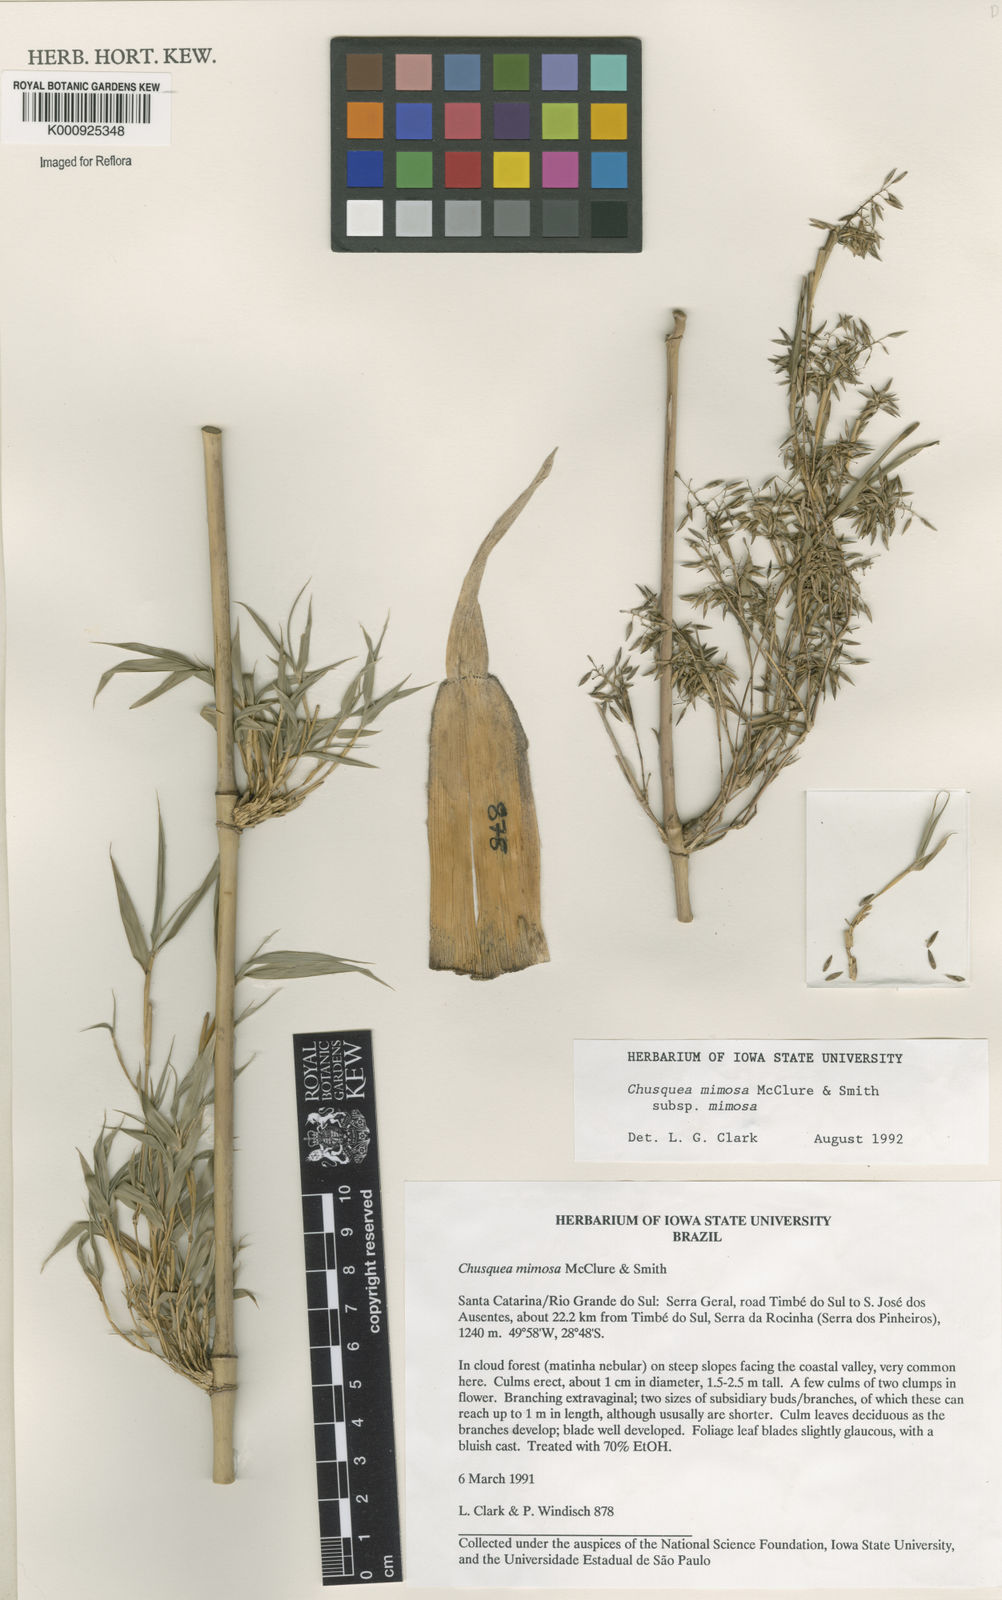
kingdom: Plantae
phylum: Tracheophyta
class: Liliopsida
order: Poales
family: Poaceae
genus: Chusquea
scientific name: Chusquea mimosa
